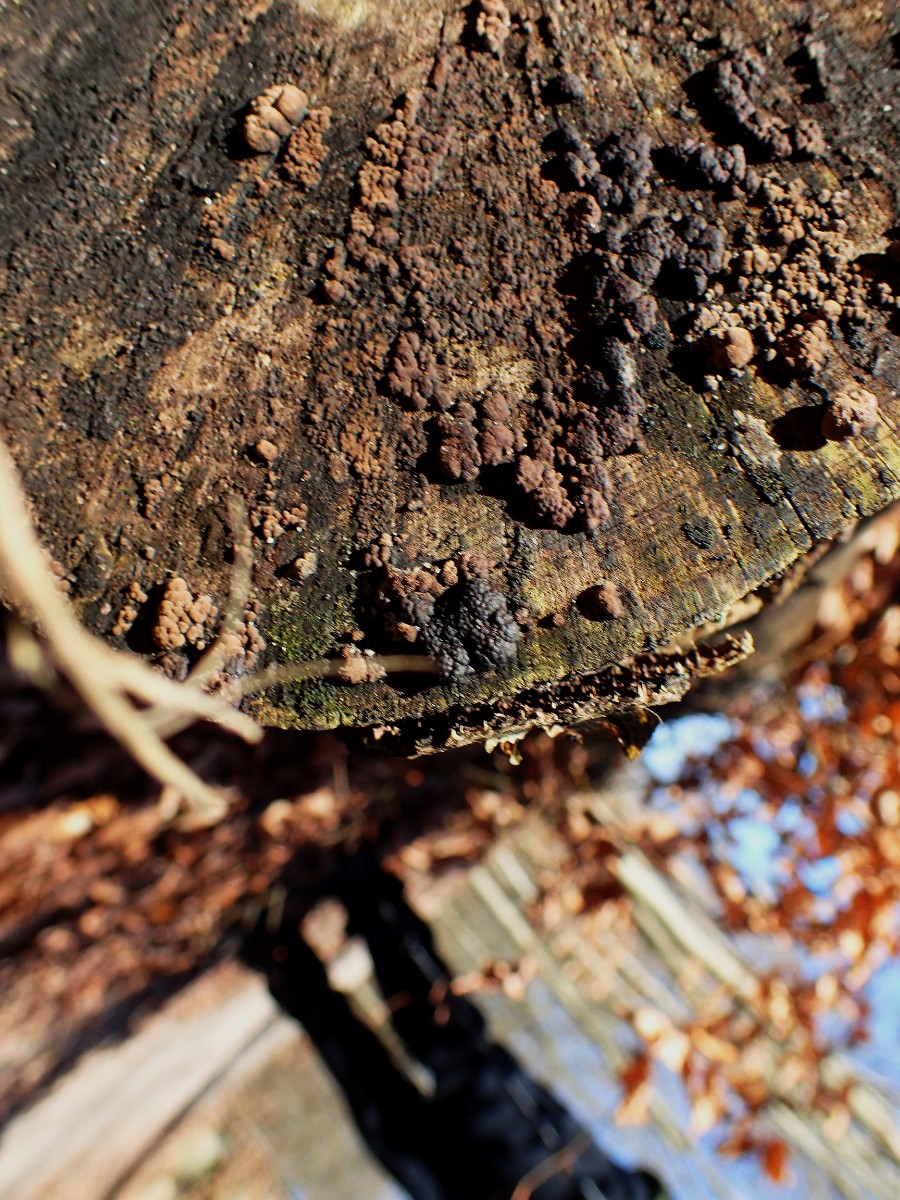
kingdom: Fungi
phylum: Ascomycota
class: Sordariomycetes
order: Xylariales
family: Hypoxylaceae
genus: Jackrogersella
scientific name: Jackrogersella cohaerens
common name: sammenflydende kulbær
